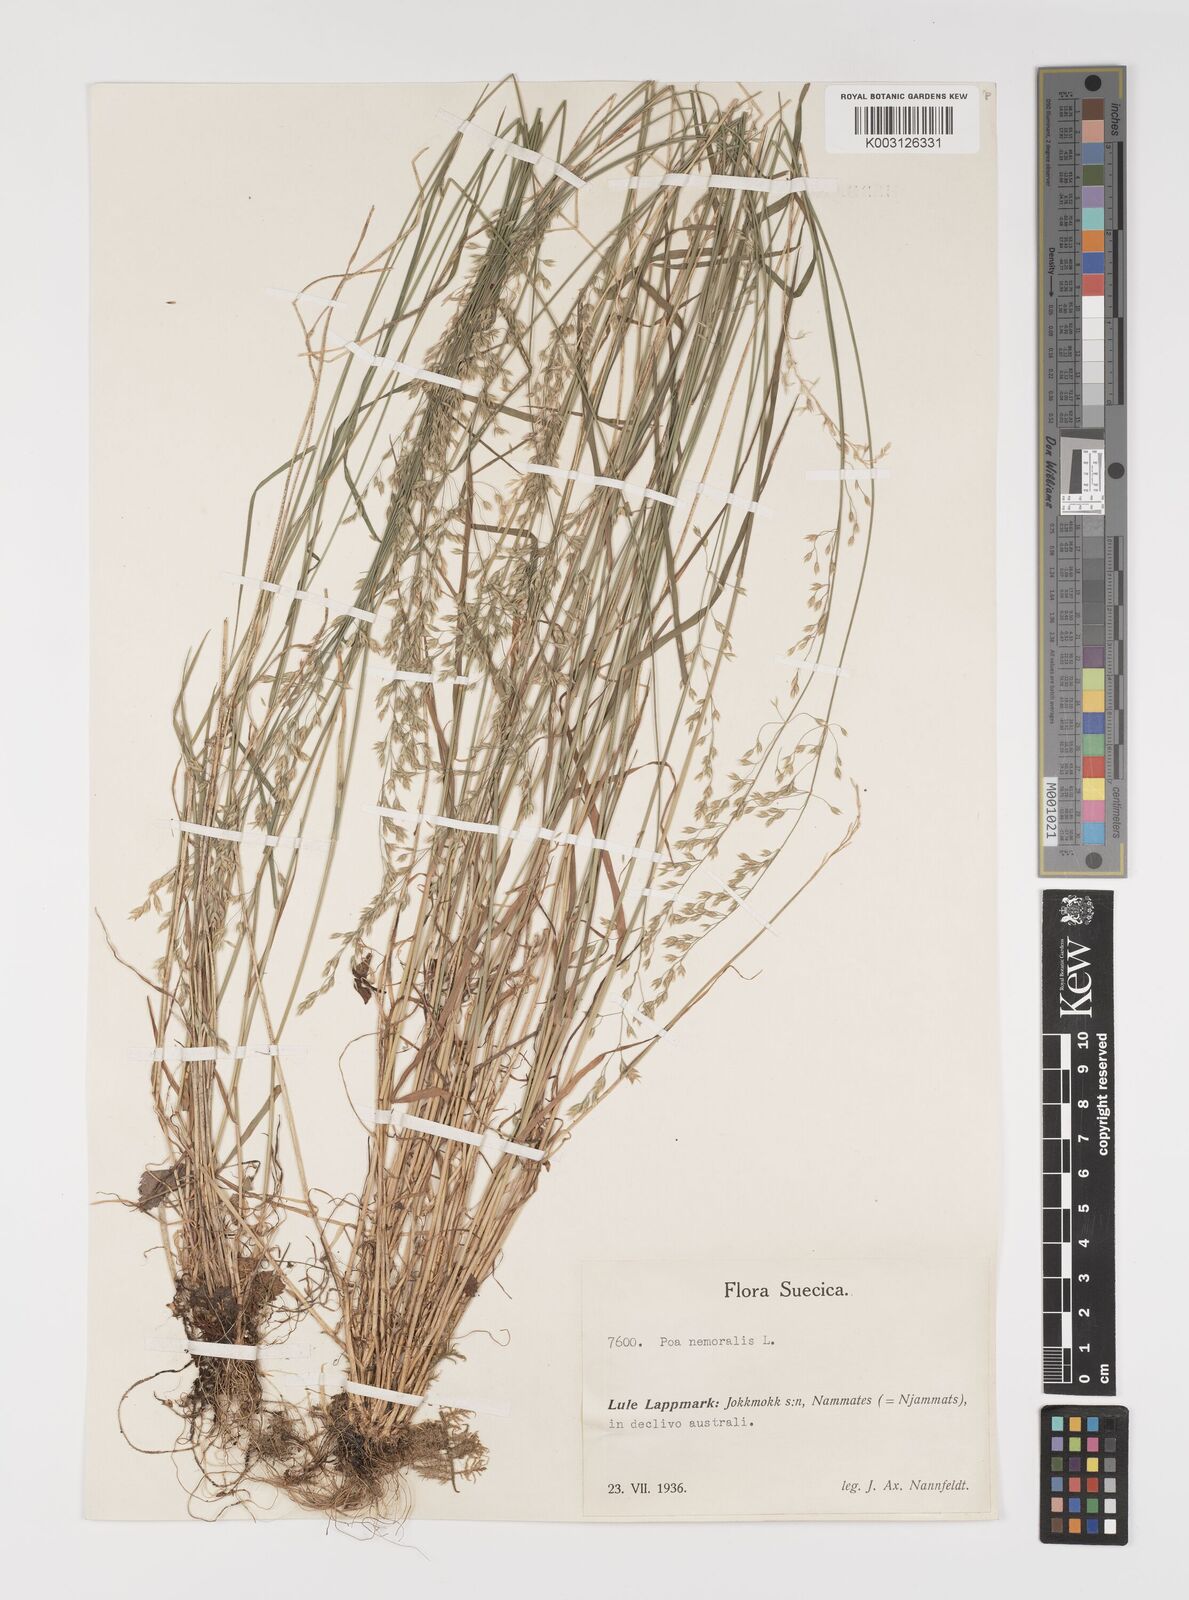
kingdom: Plantae
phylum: Tracheophyta
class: Liliopsida
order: Poales
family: Poaceae
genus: Poa
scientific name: Poa glauca
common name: Glaucous bluegrass
